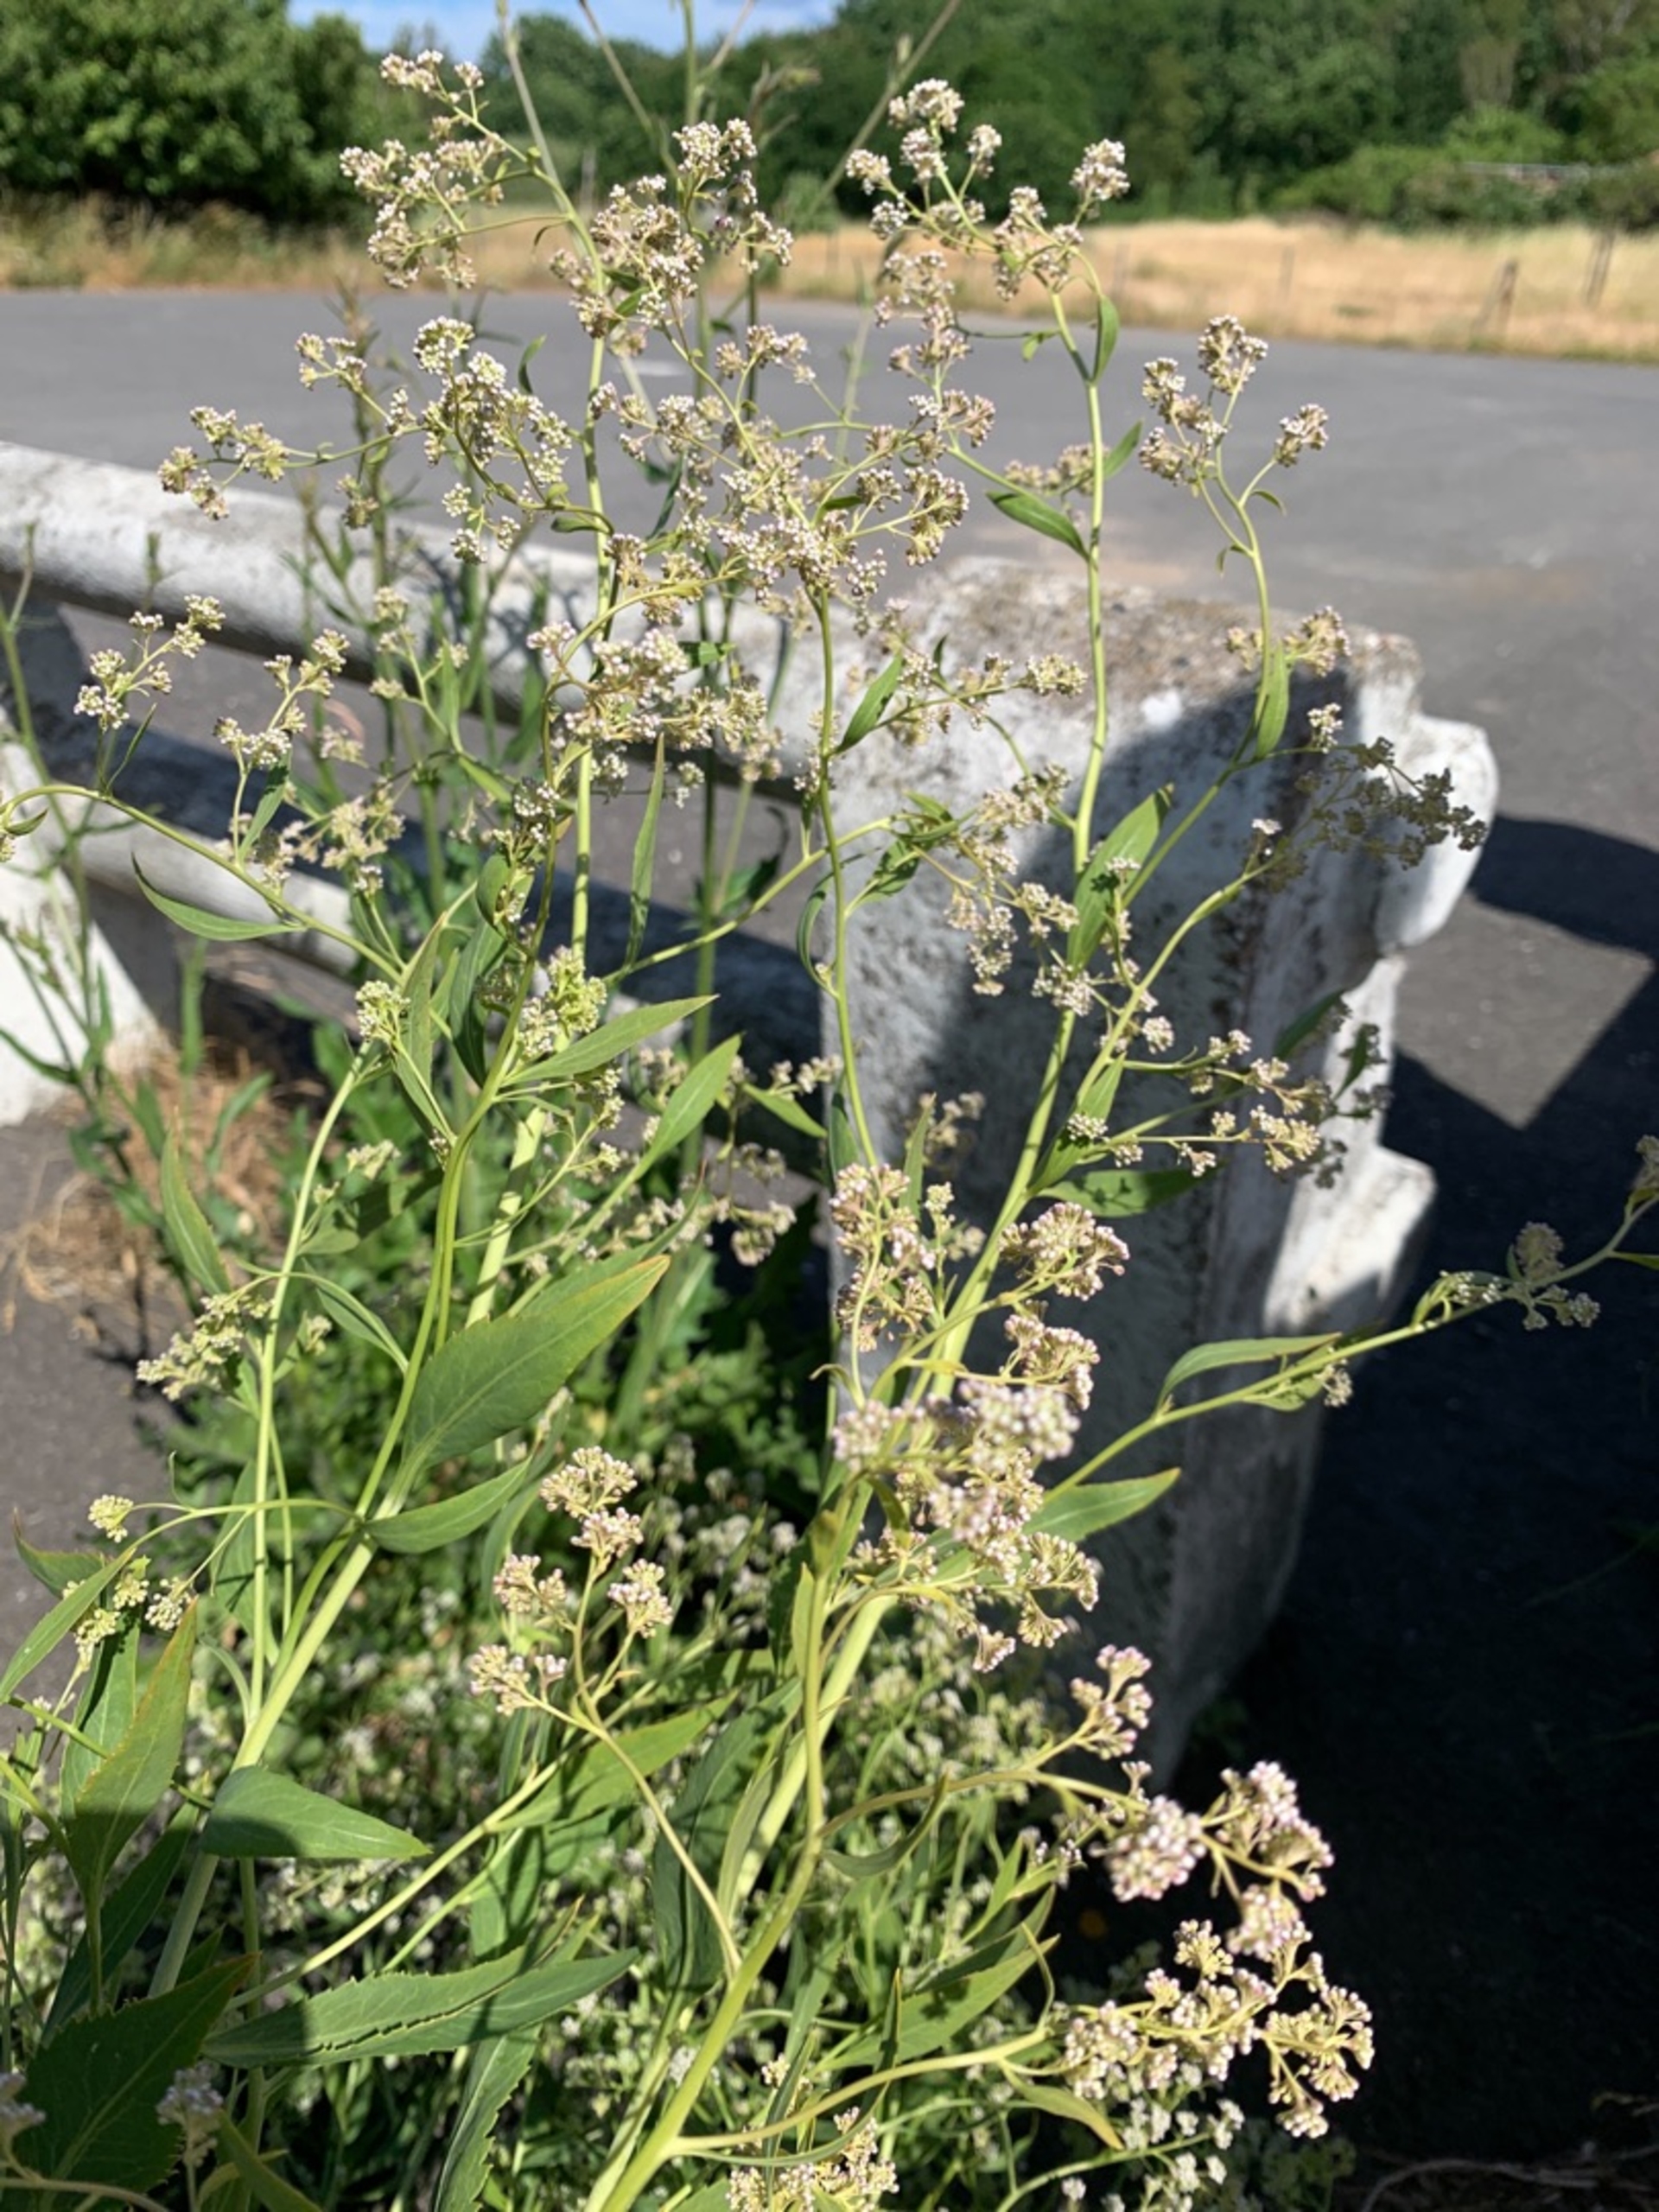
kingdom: Plantae
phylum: Tracheophyta
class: Magnoliopsida
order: Brassicales
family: Brassicaceae
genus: Lepidium
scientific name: Lepidium latifolium
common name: Strand-karse
